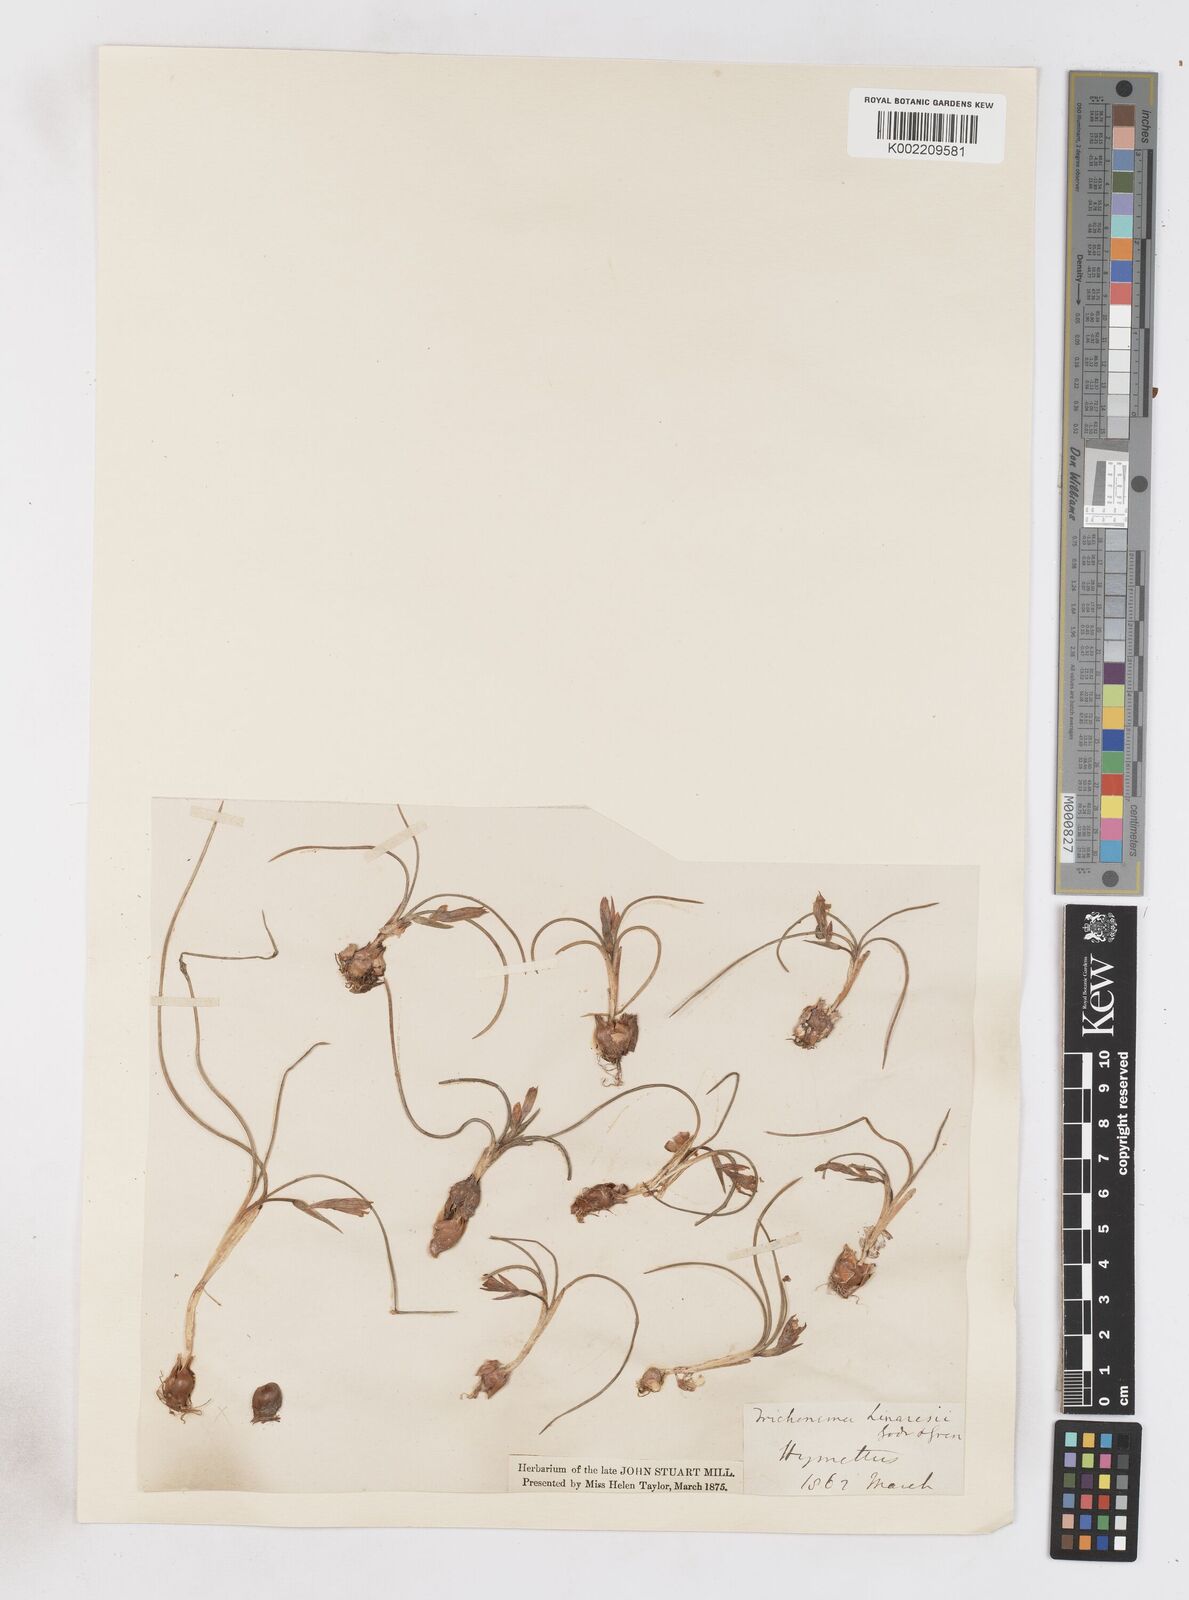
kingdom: Plantae
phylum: Tracheophyta
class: Liliopsida
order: Asparagales
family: Iridaceae
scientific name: Iridaceae
